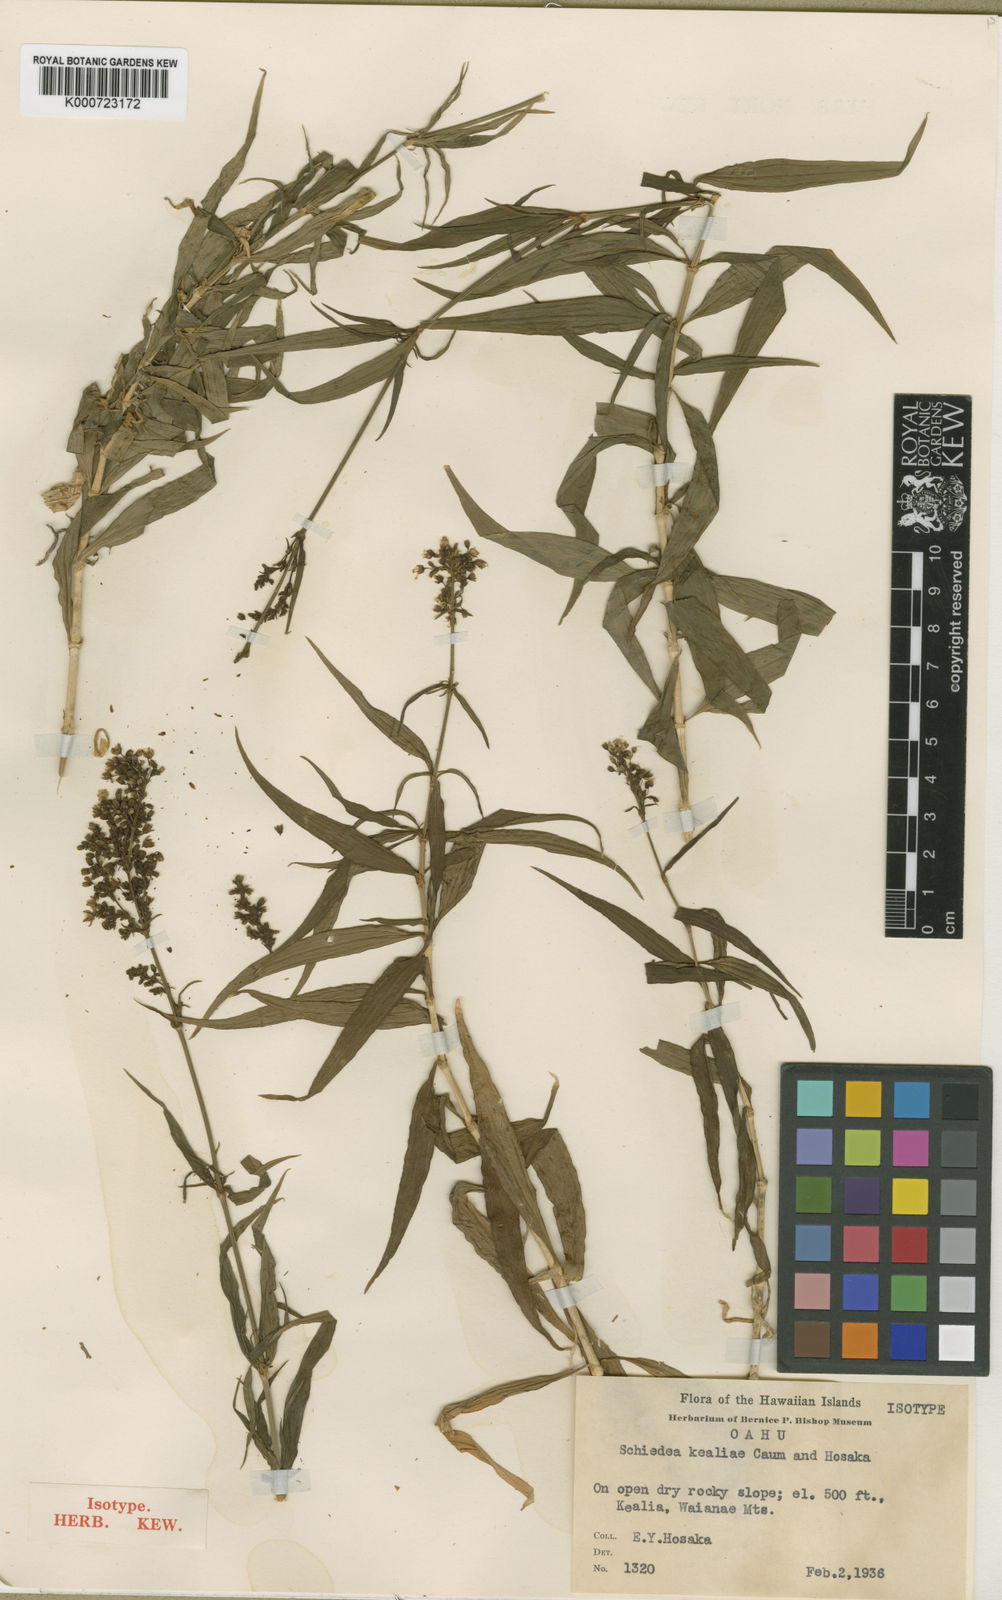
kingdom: Plantae
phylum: Tracheophyta
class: Magnoliopsida
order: Caryophyllales
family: Caryophyllaceae
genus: Schiedea
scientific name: Schiedea kealiae
